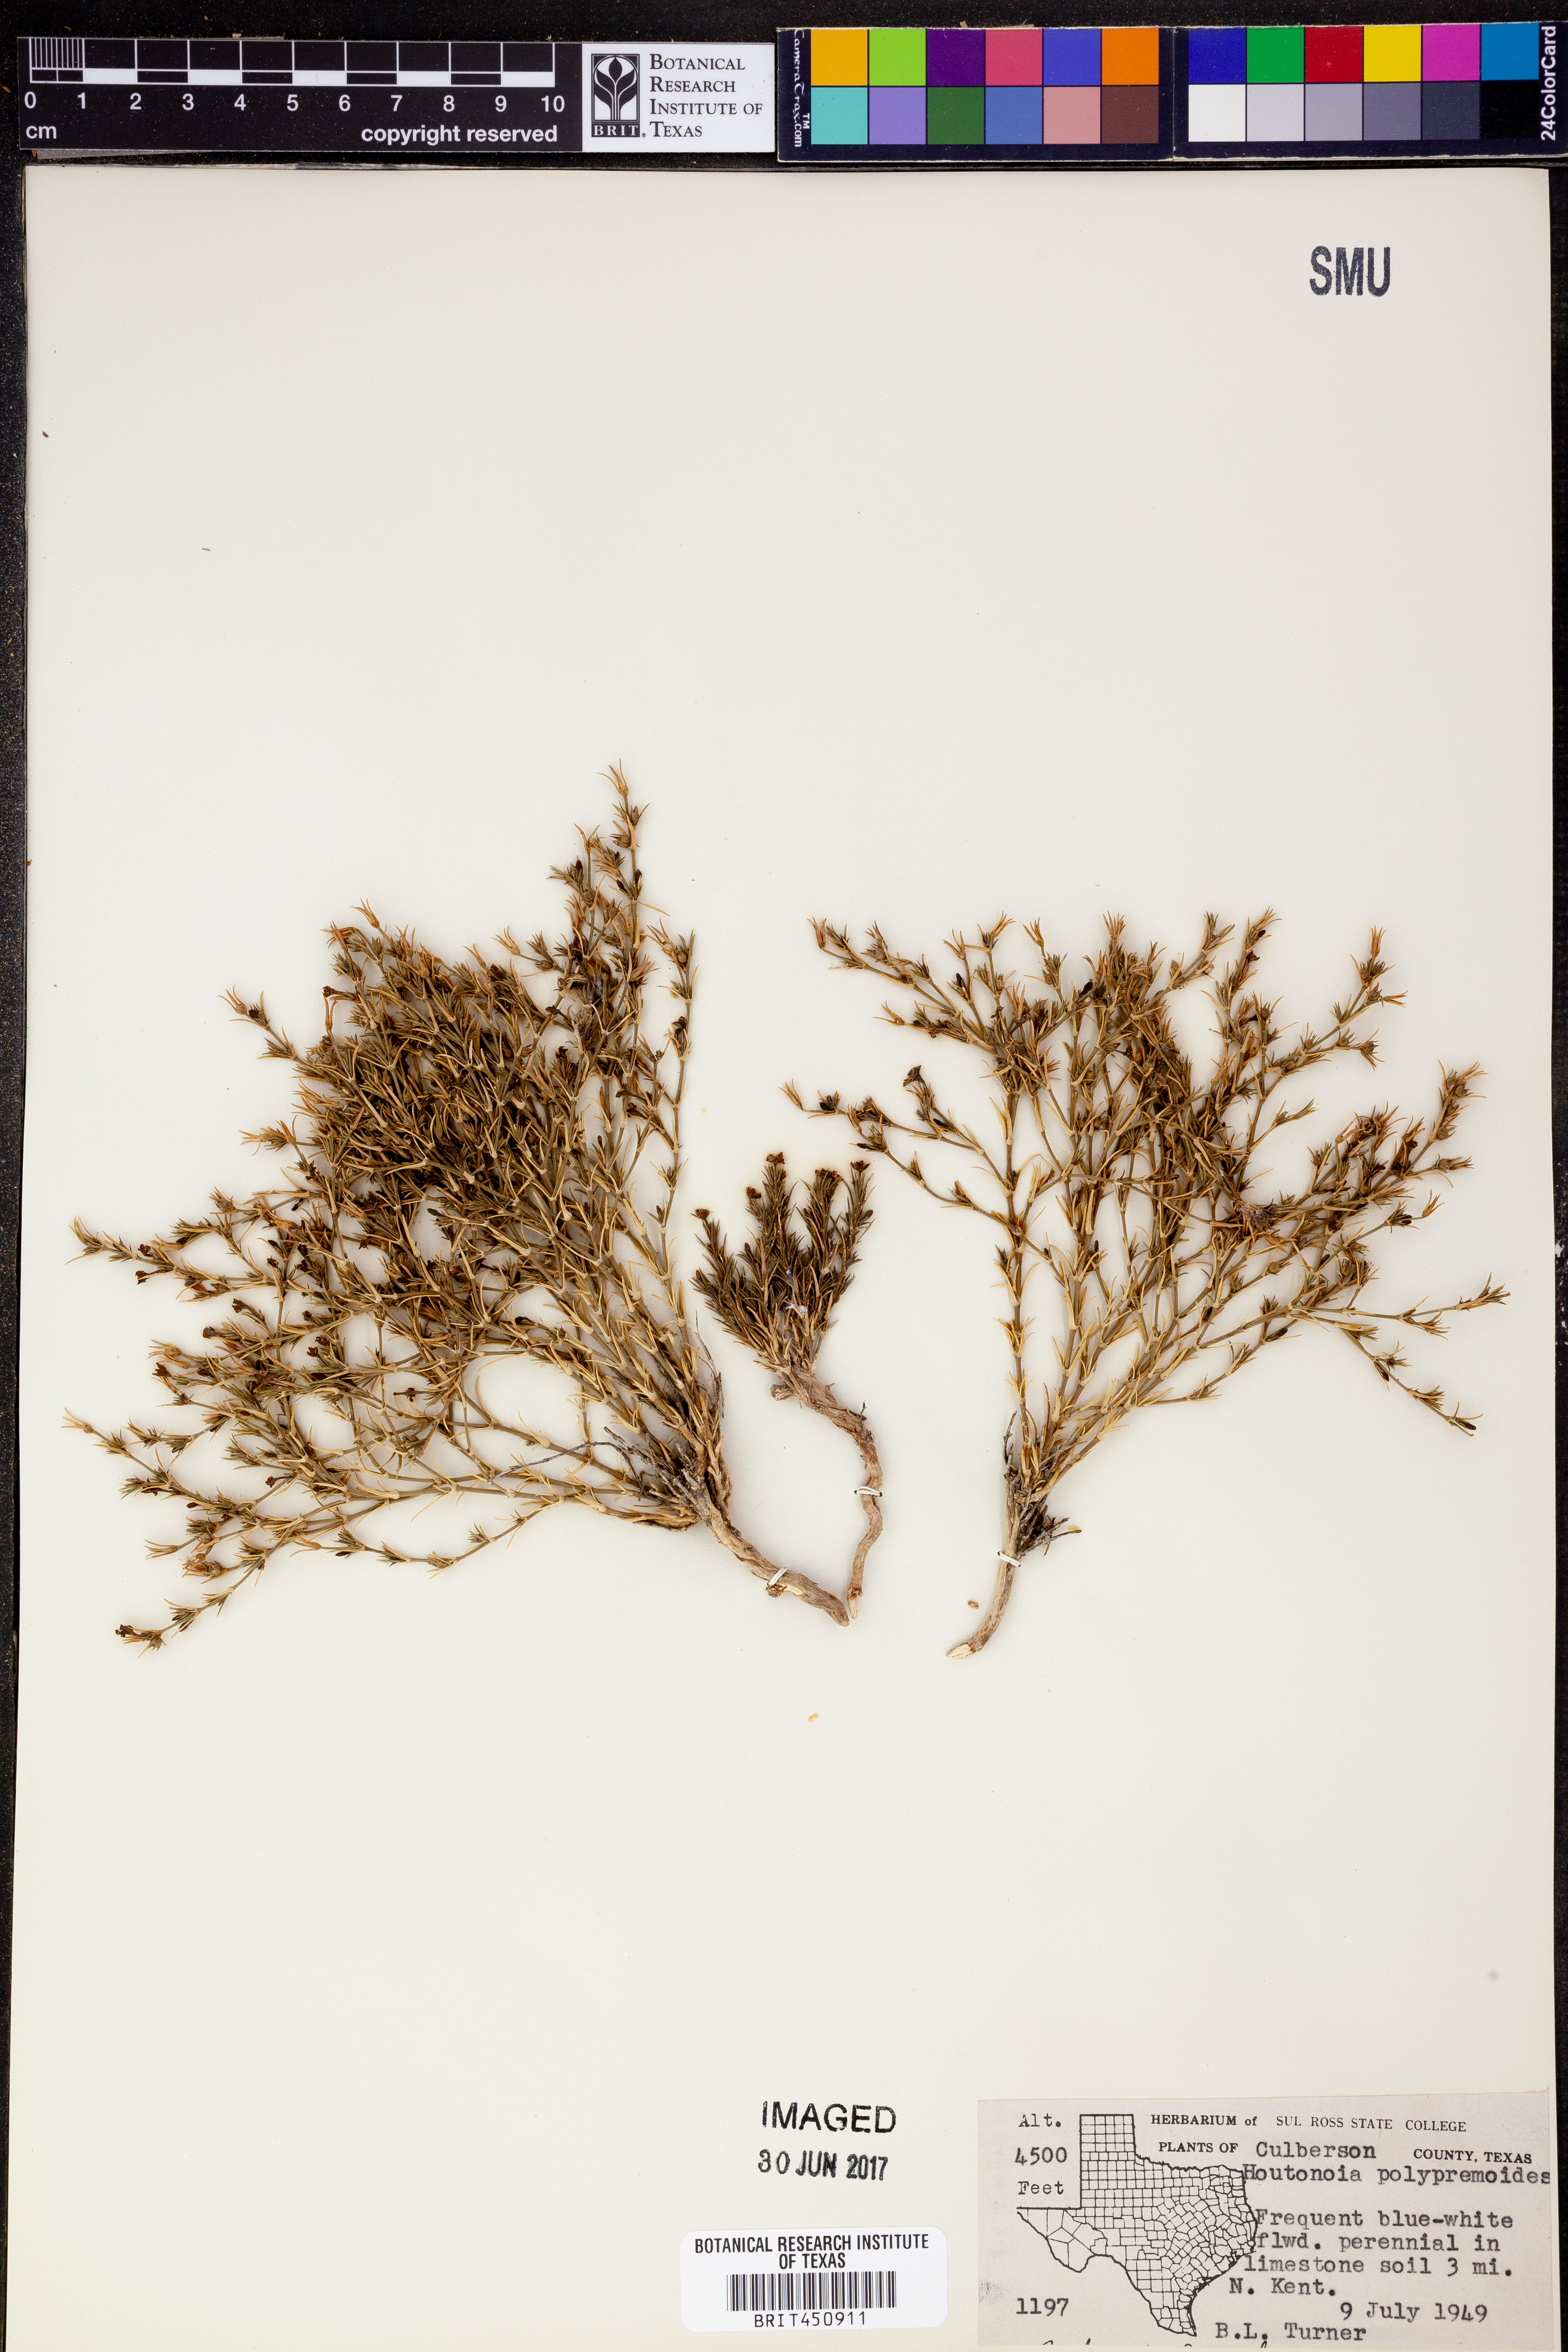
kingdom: Plantae
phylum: Tracheophyta
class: Magnoliopsida
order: Gentianales
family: Rubiaceae
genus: Houstonia
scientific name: Houstonia acerosa
